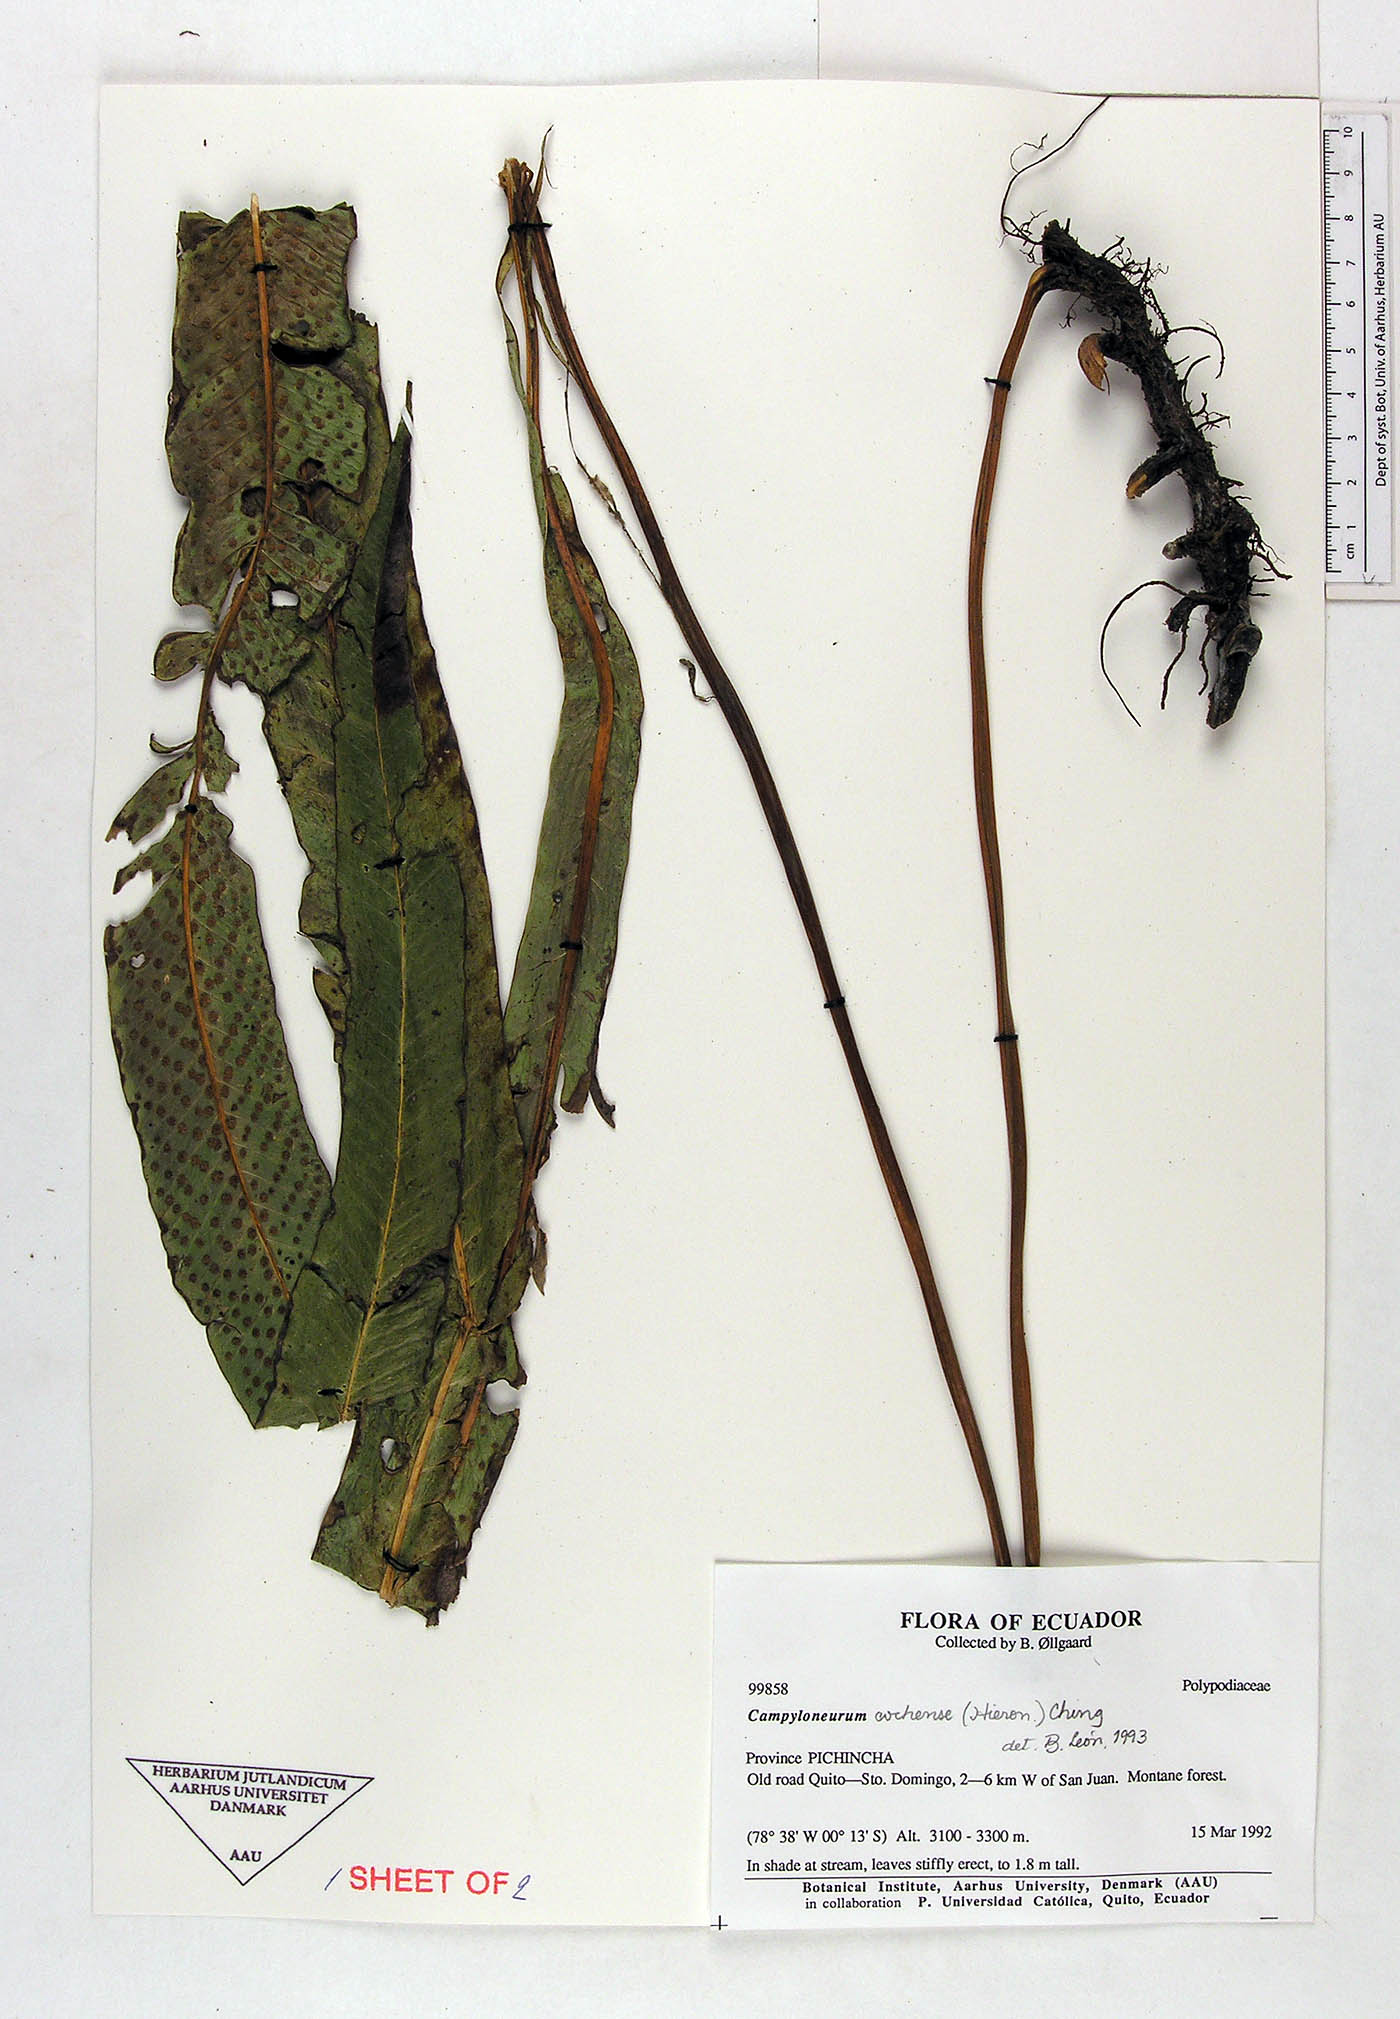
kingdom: Plantae
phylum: Tracheophyta
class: Polypodiopsida
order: Polypodiales
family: Polypodiaceae
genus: Campyloneurum
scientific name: Campyloneurum cochense
